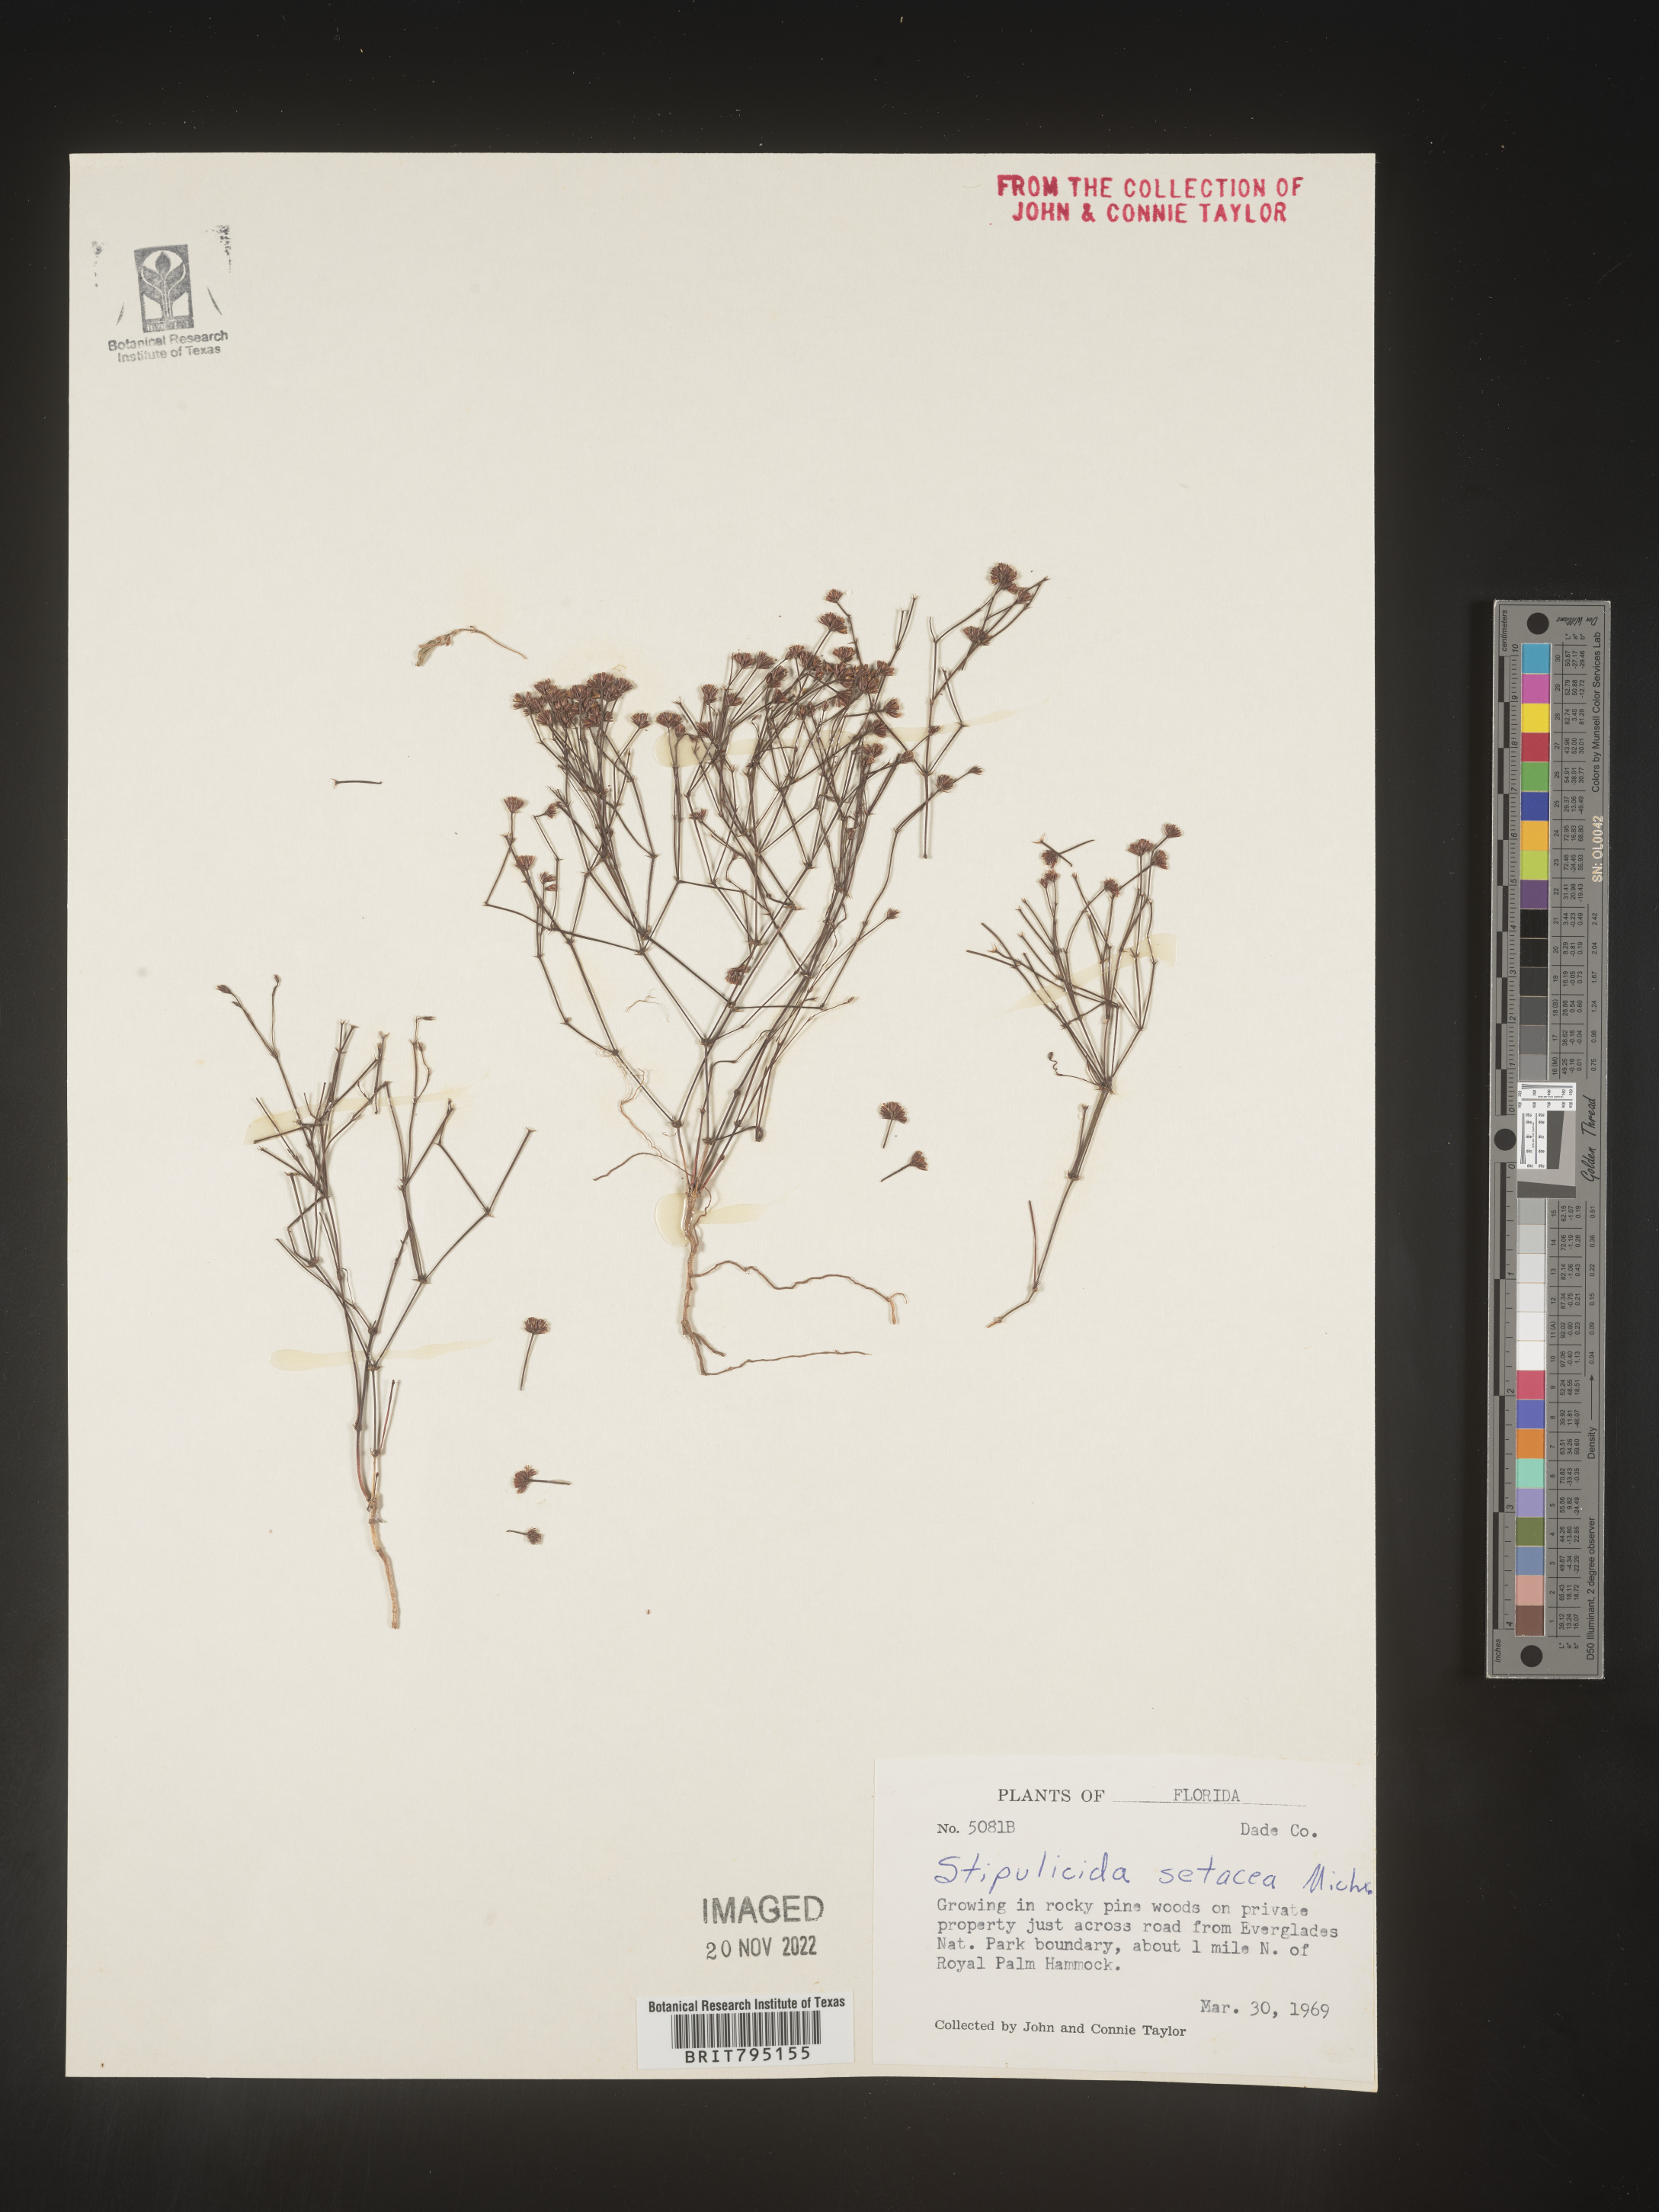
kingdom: Plantae
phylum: Tracheophyta
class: Magnoliopsida
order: Caryophyllales
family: Caryophyllaceae
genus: Stipulicida
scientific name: Stipulicida
